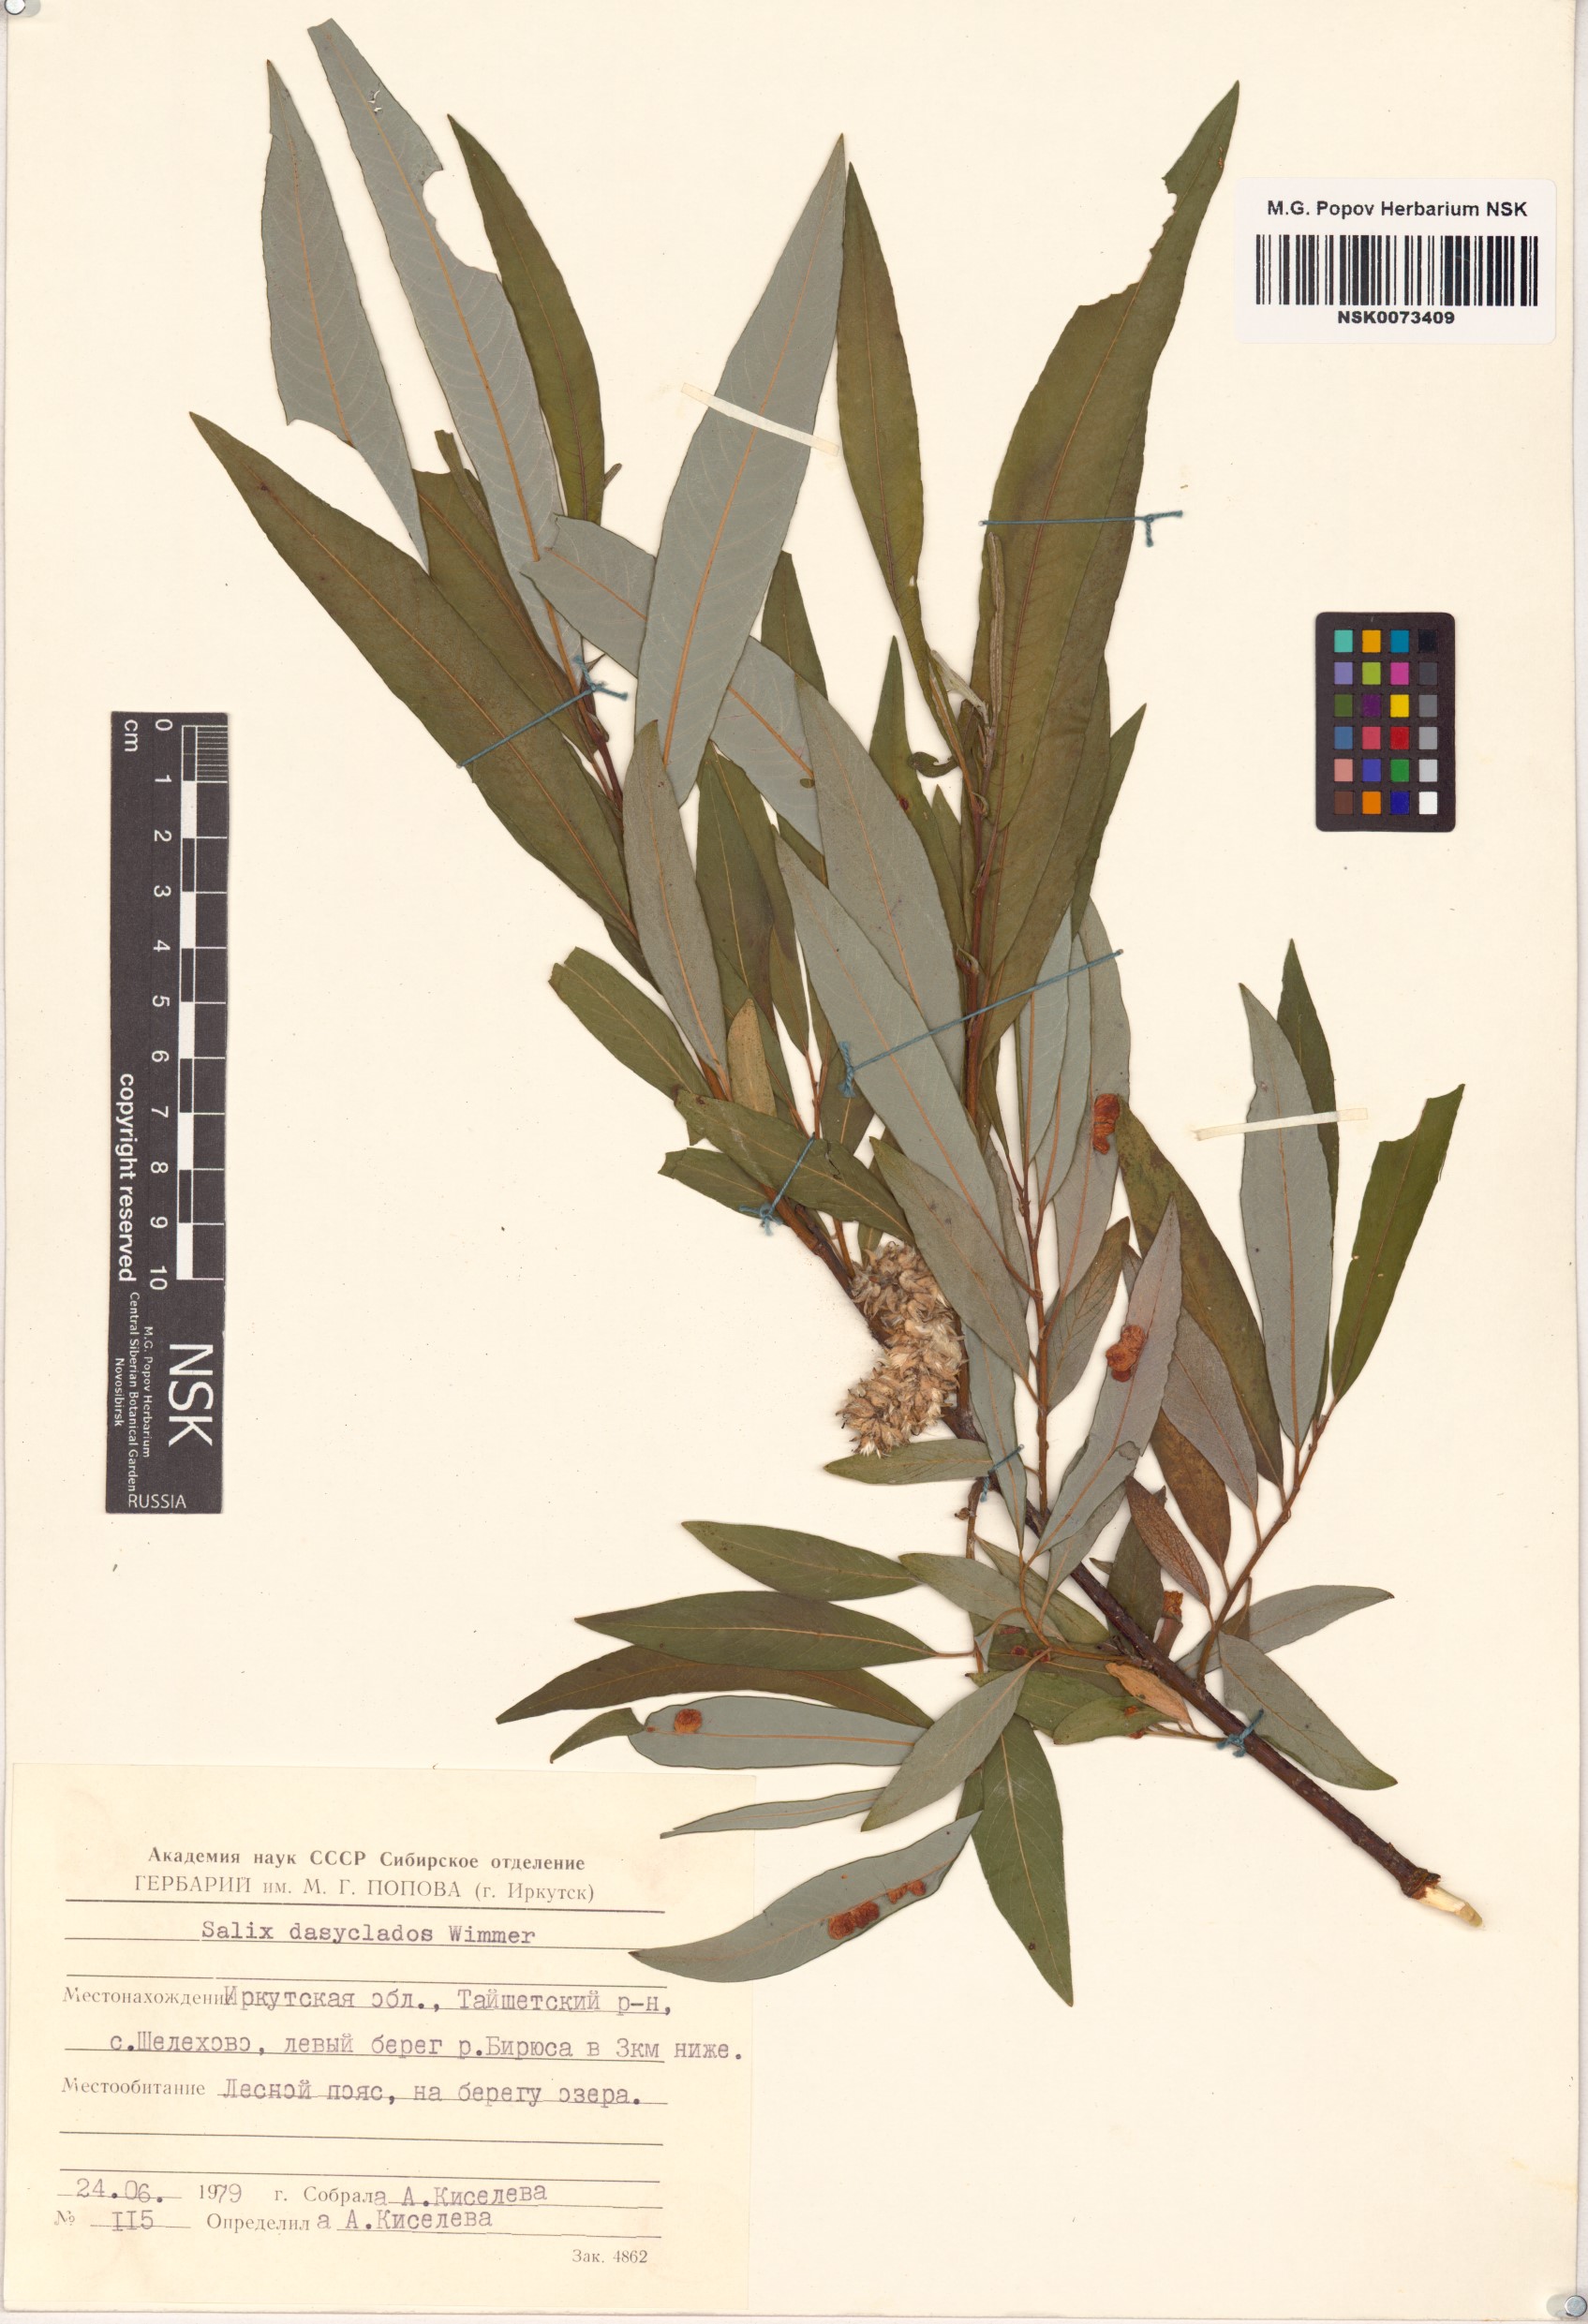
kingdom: Plantae
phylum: Tracheophyta
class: Magnoliopsida
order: Malpighiales
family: Salicaceae
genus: Salix
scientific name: Salix gmelinii
